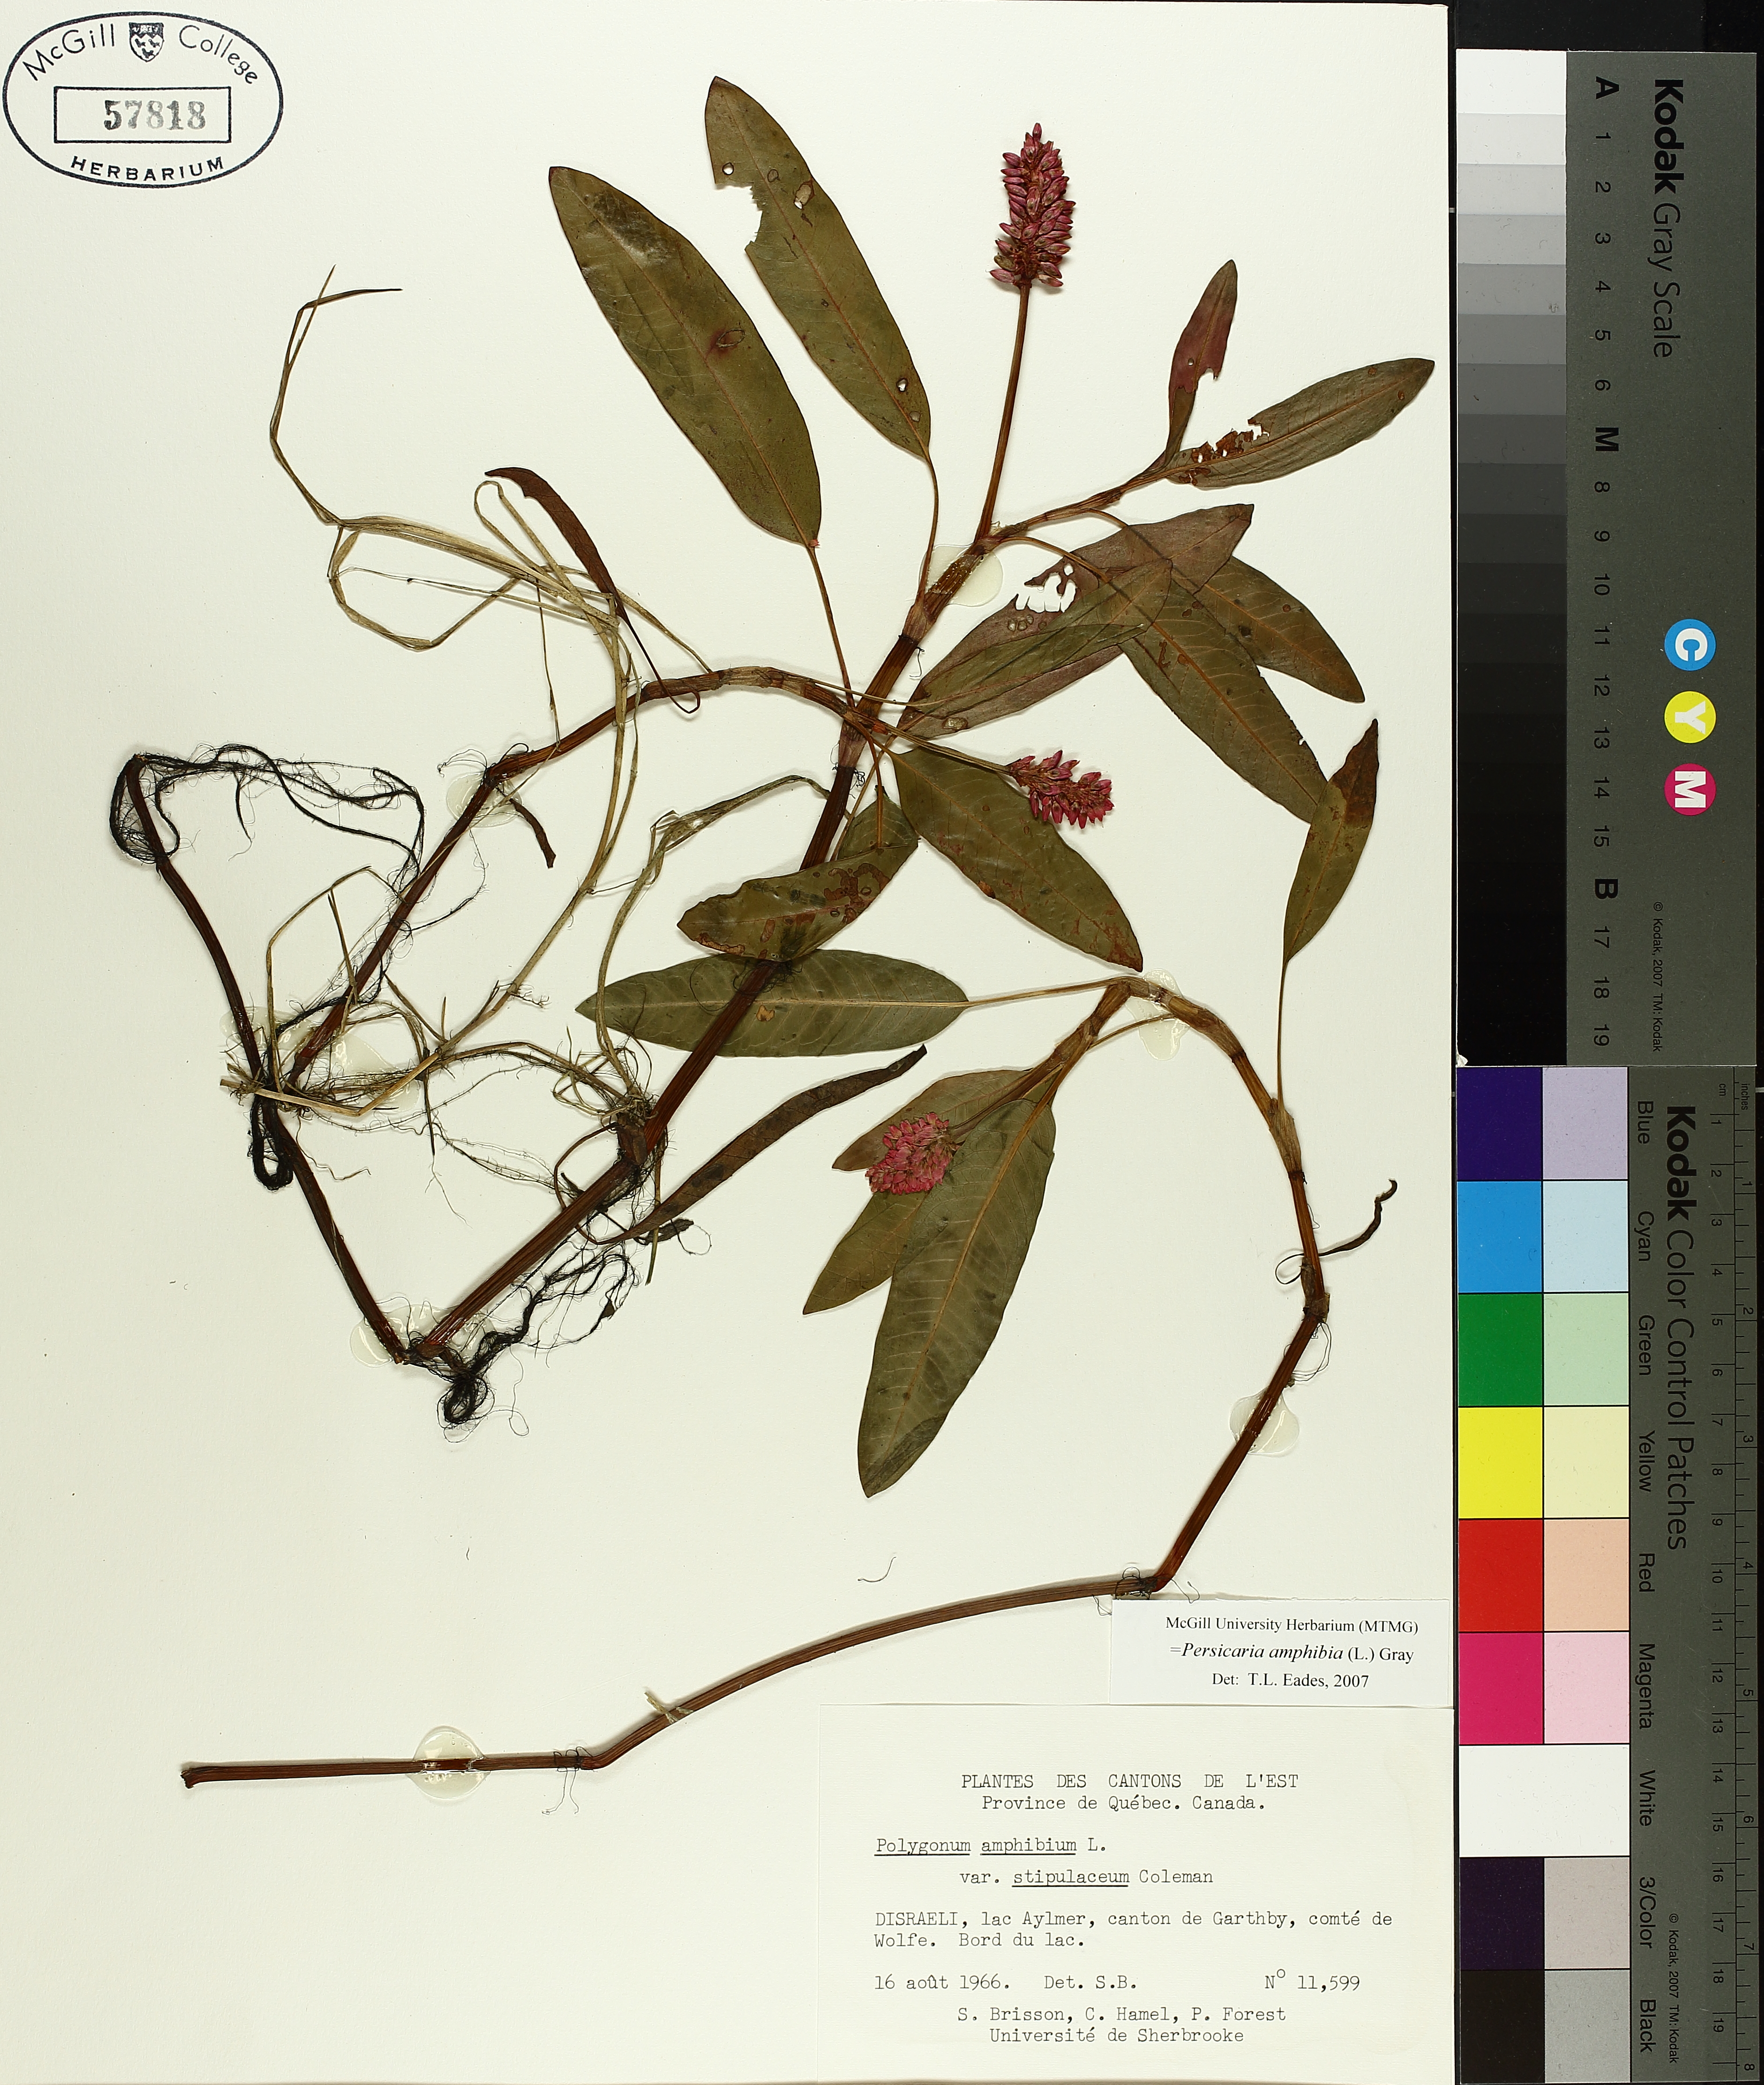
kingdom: Plantae
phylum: Tracheophyta
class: Magnoliopsida
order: Caryophyllales
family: Polygonaceae
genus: Persicaria
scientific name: Persicaria amphibia
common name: Amphibious bistort
